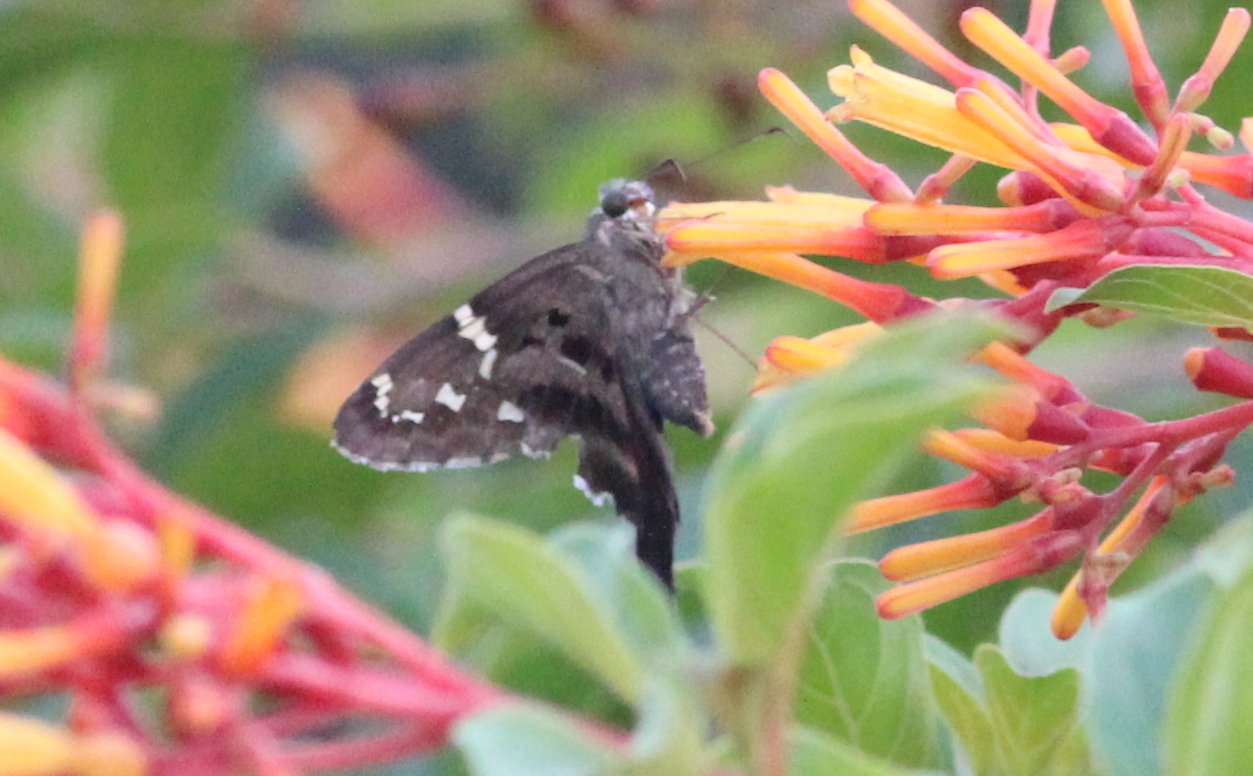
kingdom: Animalia
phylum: Arthropoda
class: Insecta
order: Lepidoptera
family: Hesperiidae
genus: Autochton
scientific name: Autochton
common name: Southern Cloudywing
